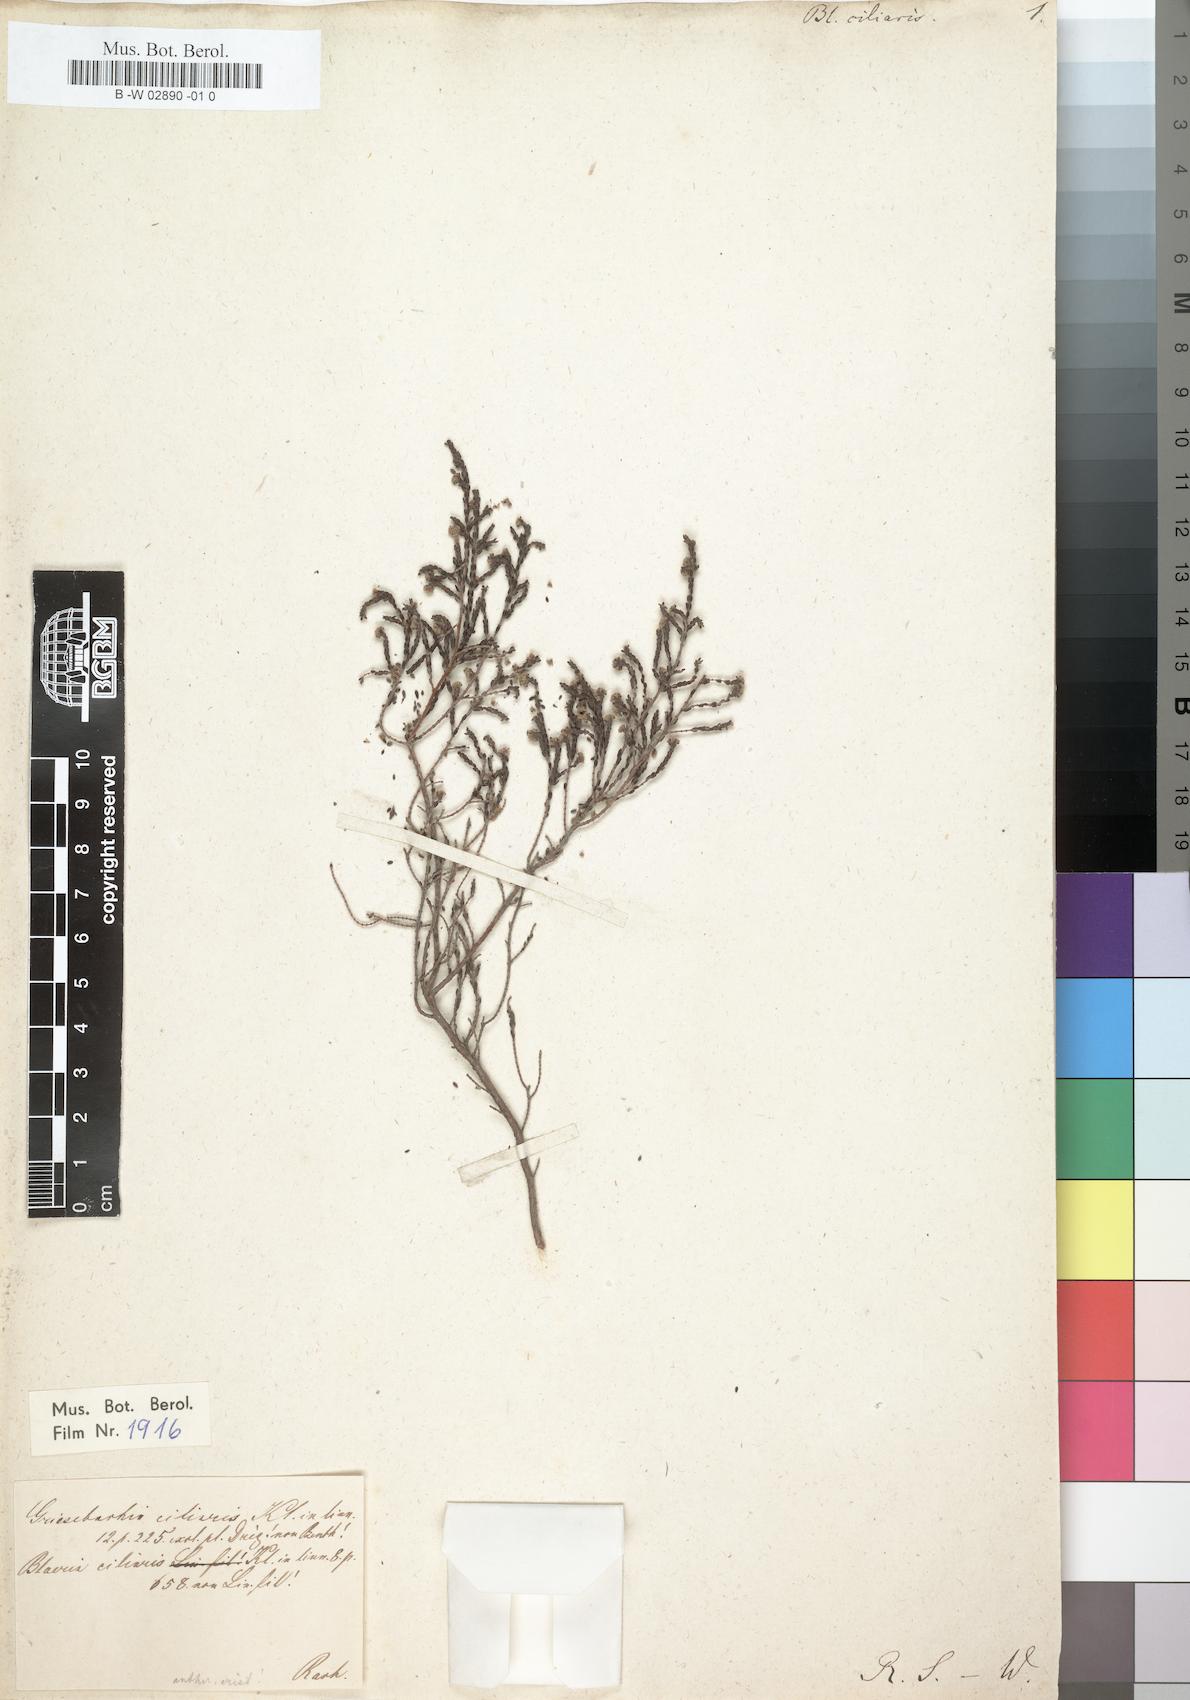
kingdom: Plantae
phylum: Tracheophyta
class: Magnoliopsida
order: Ericales
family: Ericaceae
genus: Erica
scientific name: Erica plumosa
